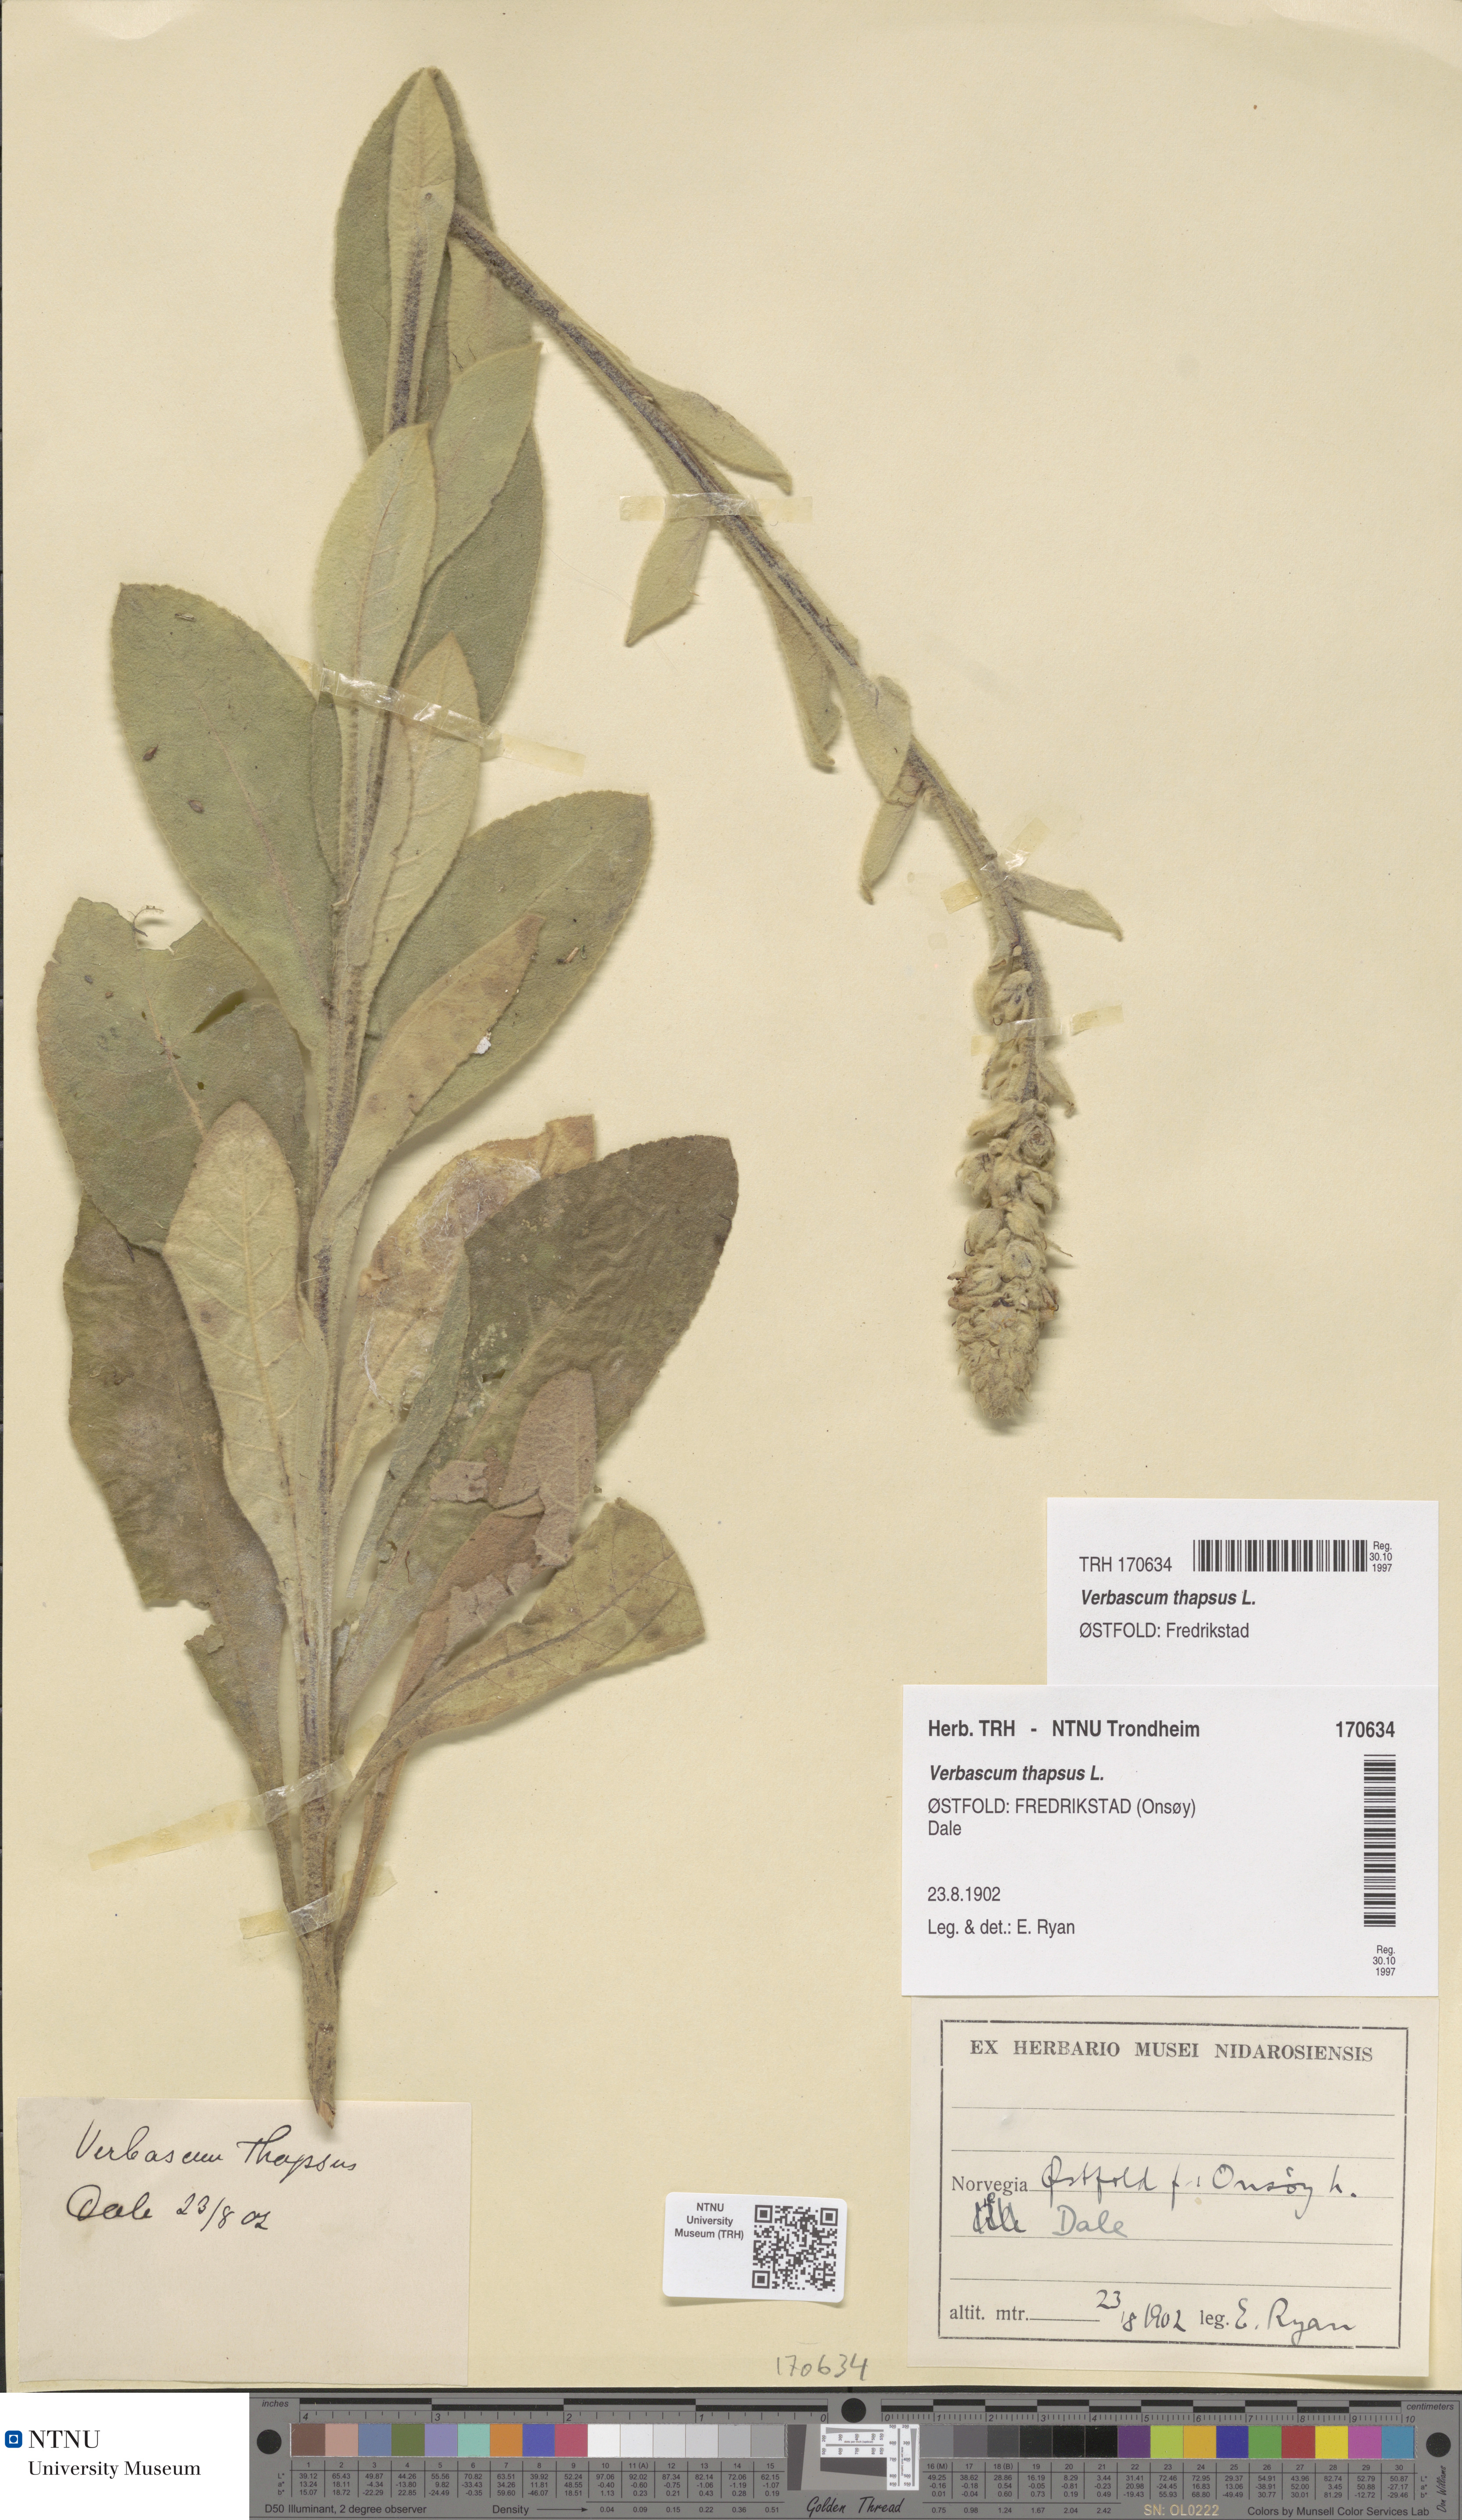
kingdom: Plantae
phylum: Tracheophyta
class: Magnoliopsida
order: Lamiales
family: Scrophulariaceae
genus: Verbascum
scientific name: Verbascum thapsus
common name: Common mullein
